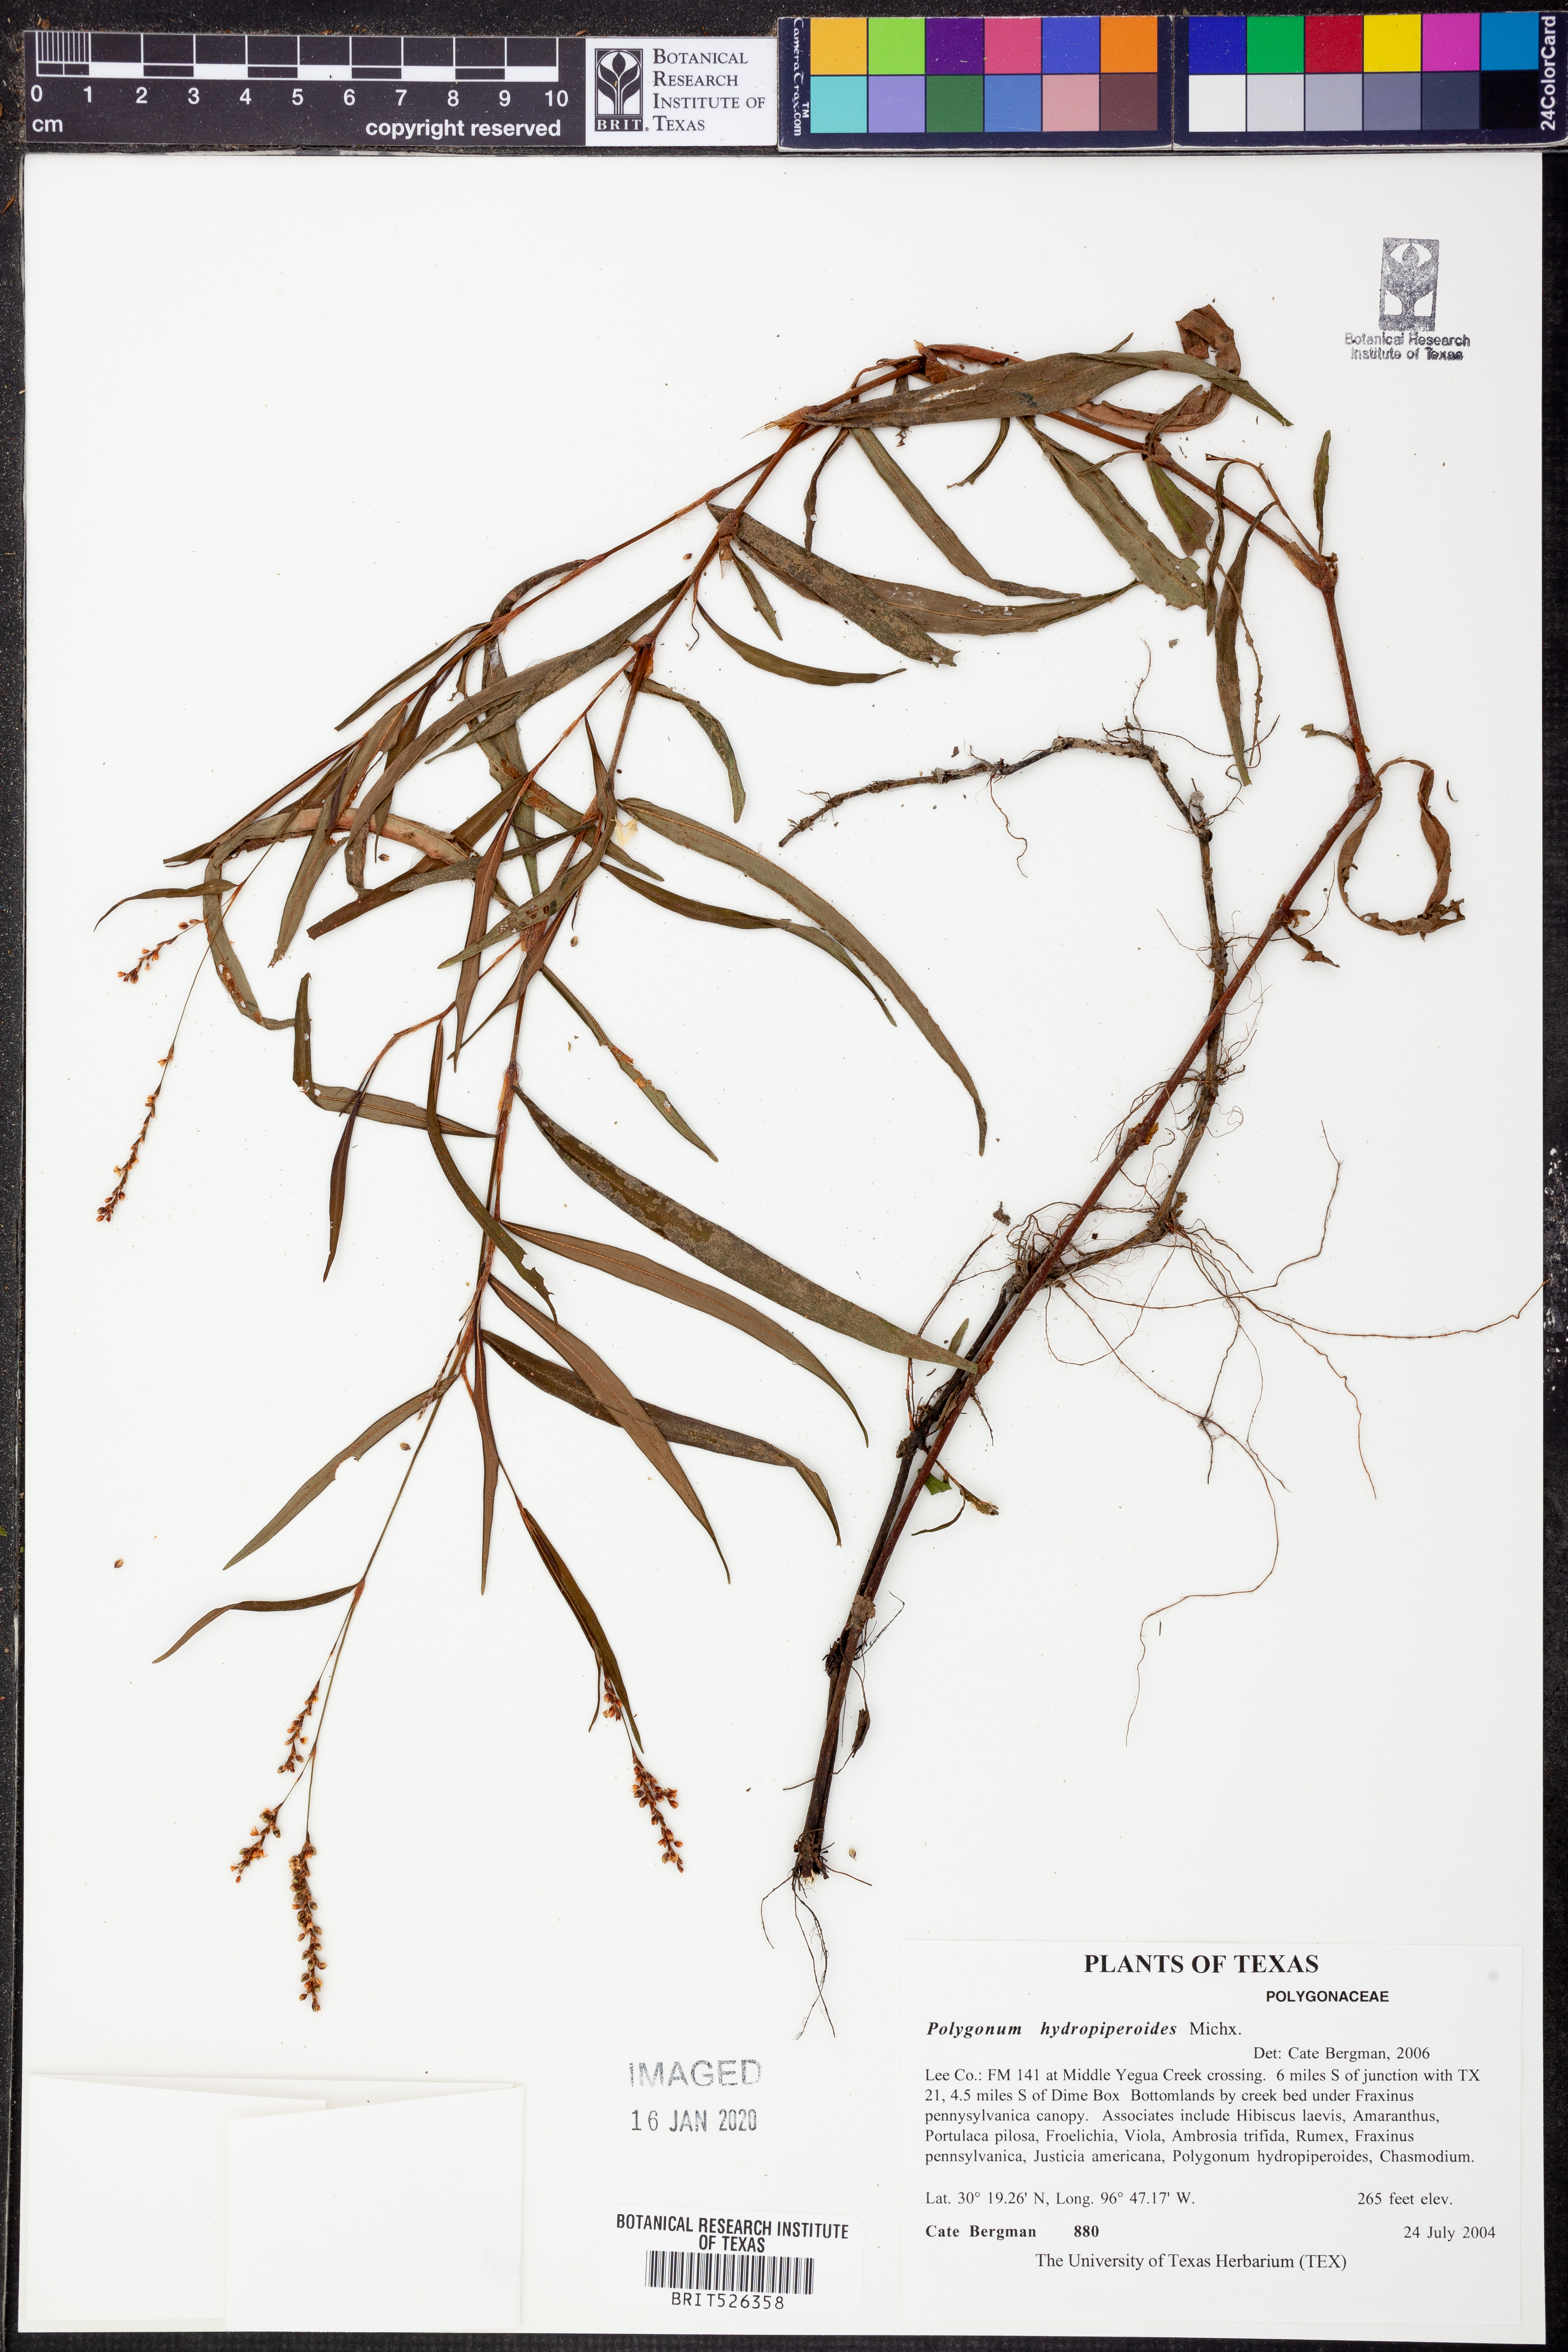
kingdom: Plantae
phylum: Tracheophyta
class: Magnoliopsida
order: Caryophyllales
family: Polygonaceae
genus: Persicaria
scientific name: Persicaria hydropiperoides
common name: Swamp smartweed
